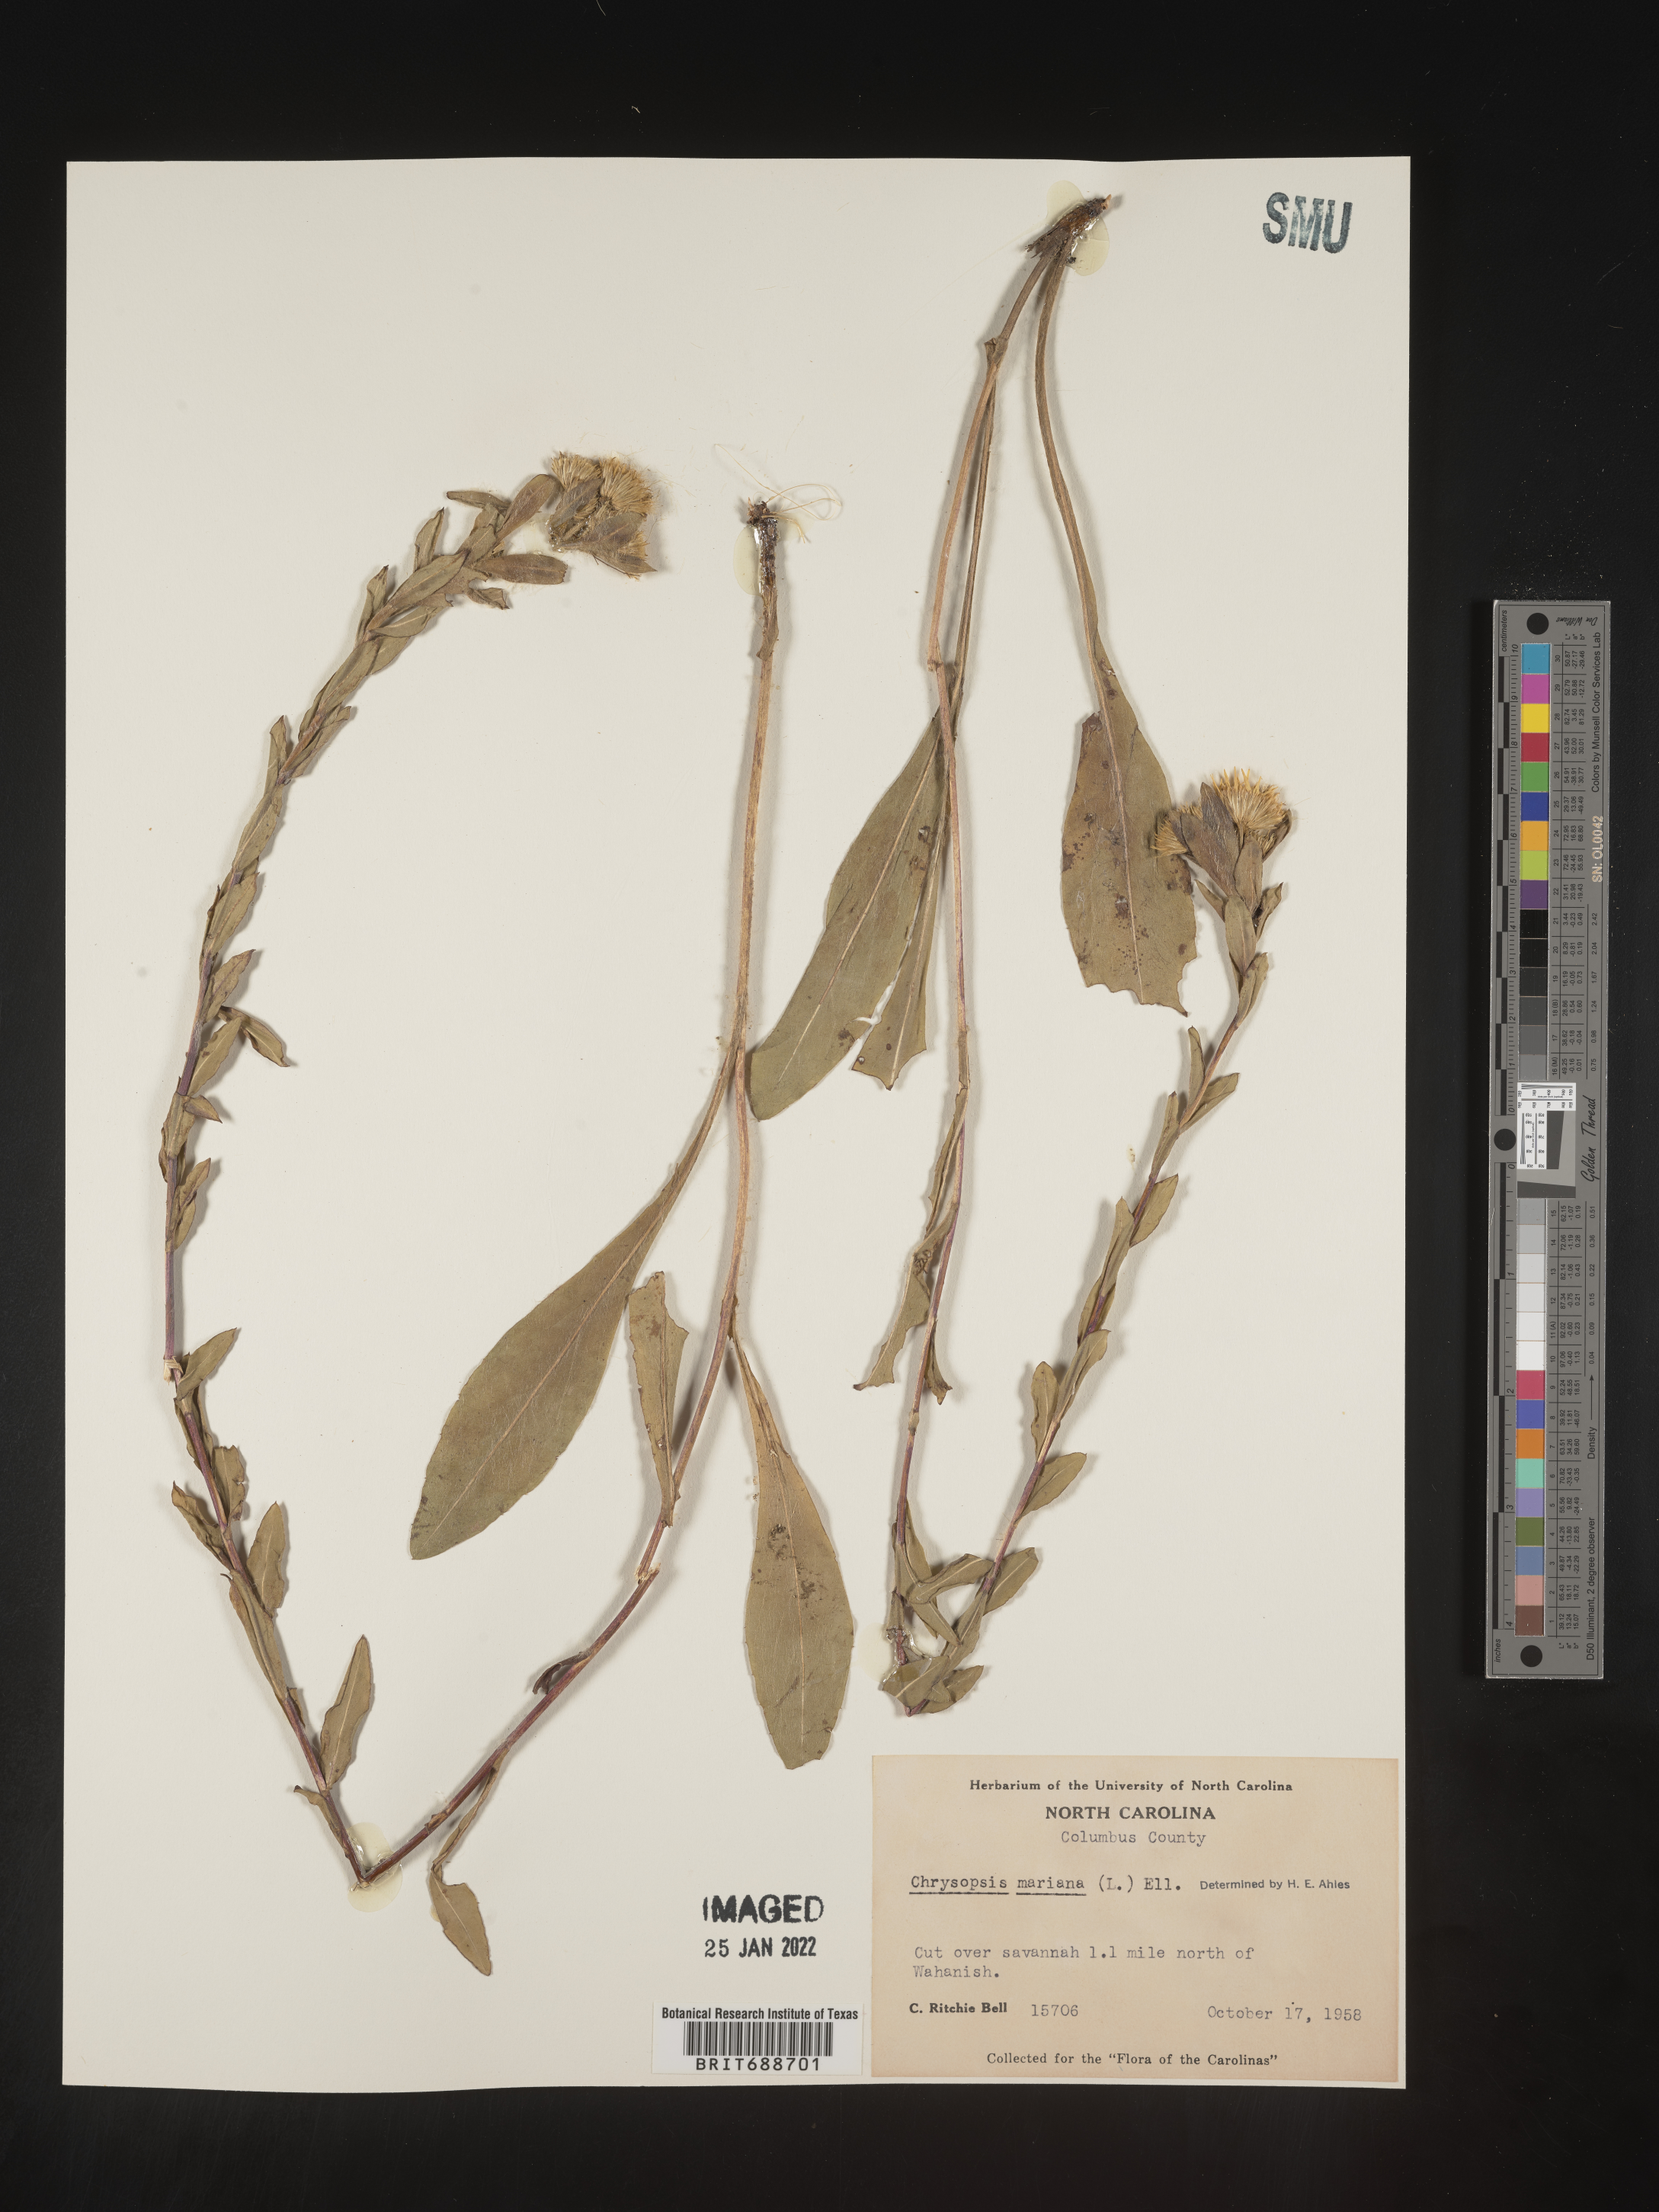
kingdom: Plantae
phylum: Tracheophyta
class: Magnoliopsida
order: Asterales
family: Asteraceae
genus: Chrysopsis
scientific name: Chrysopsis mariana
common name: Maryland golden-aster
